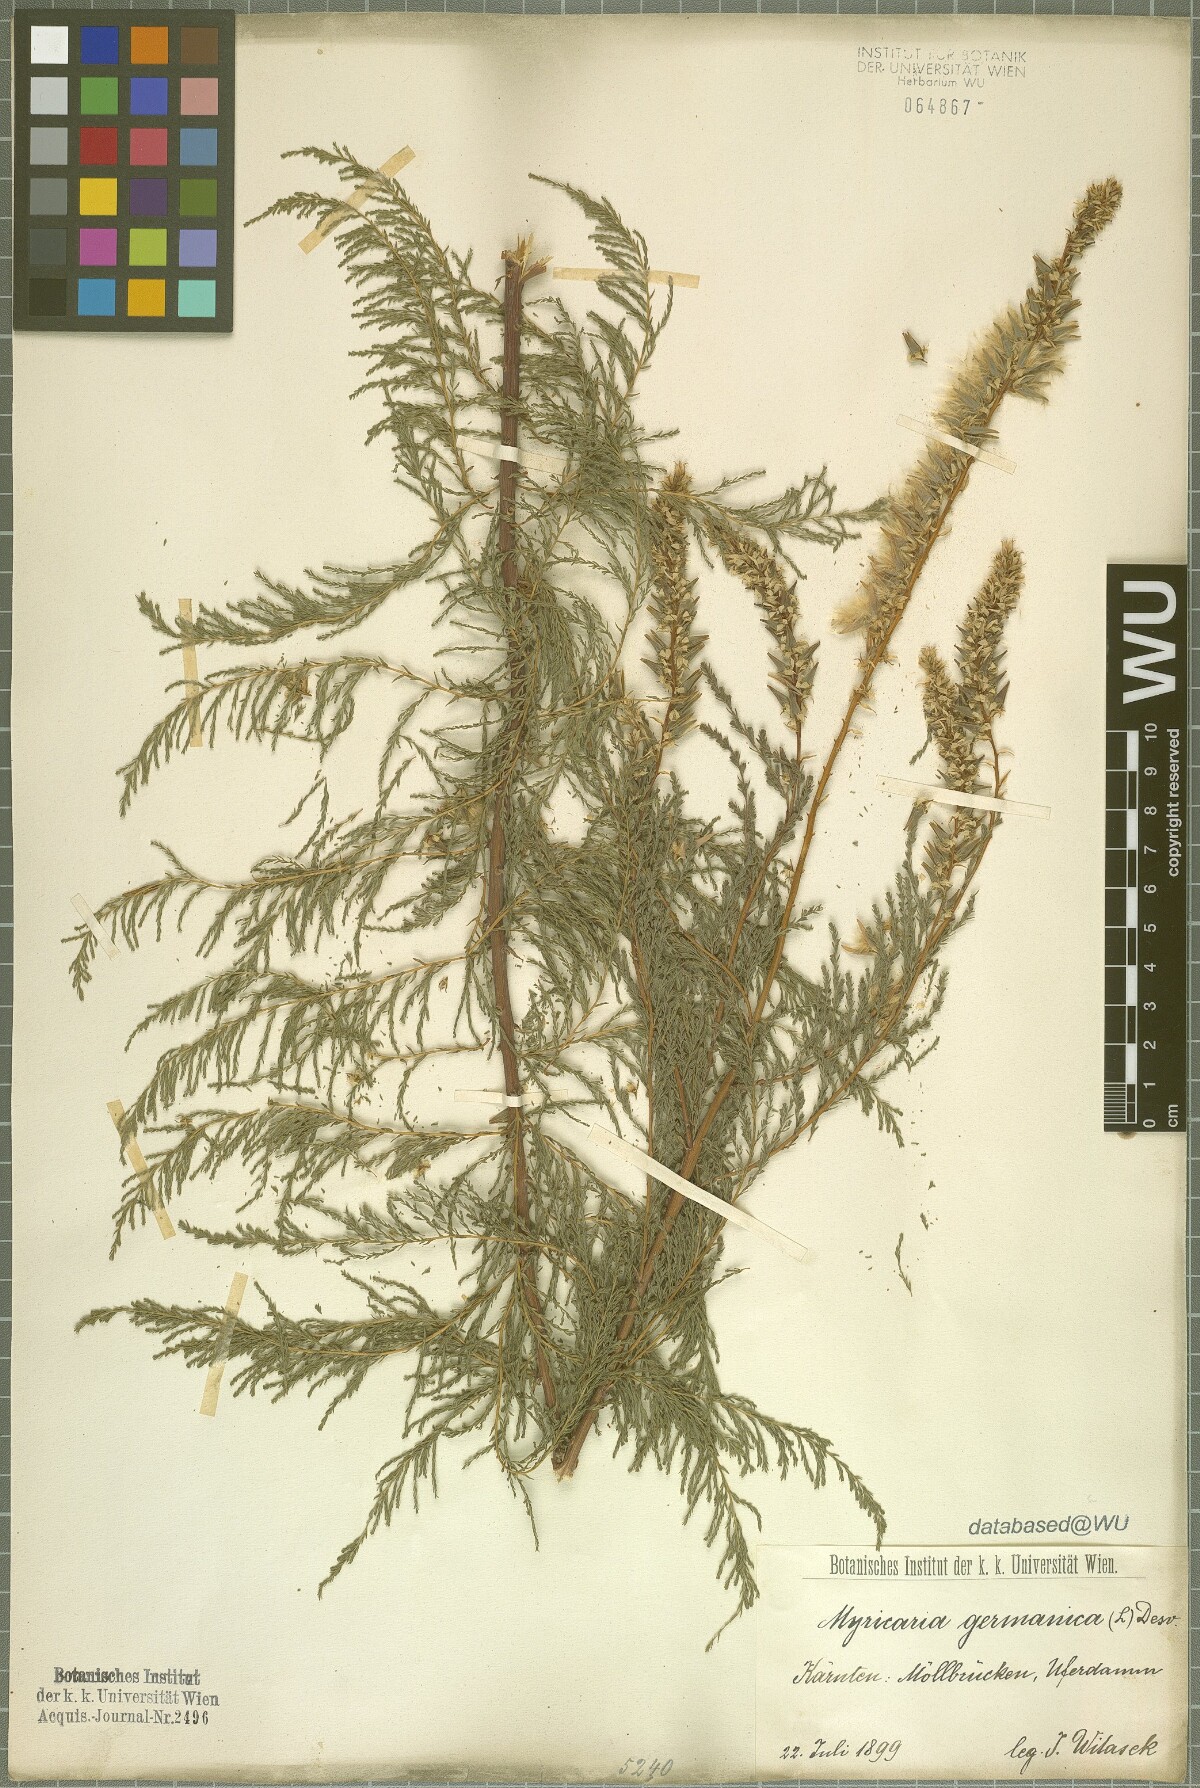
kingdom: Plantae
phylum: Tracheophyta
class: Magnoliopsida
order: Caryophyllales
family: Tamaricaceae
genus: Myricaria
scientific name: Myricaria germanica
